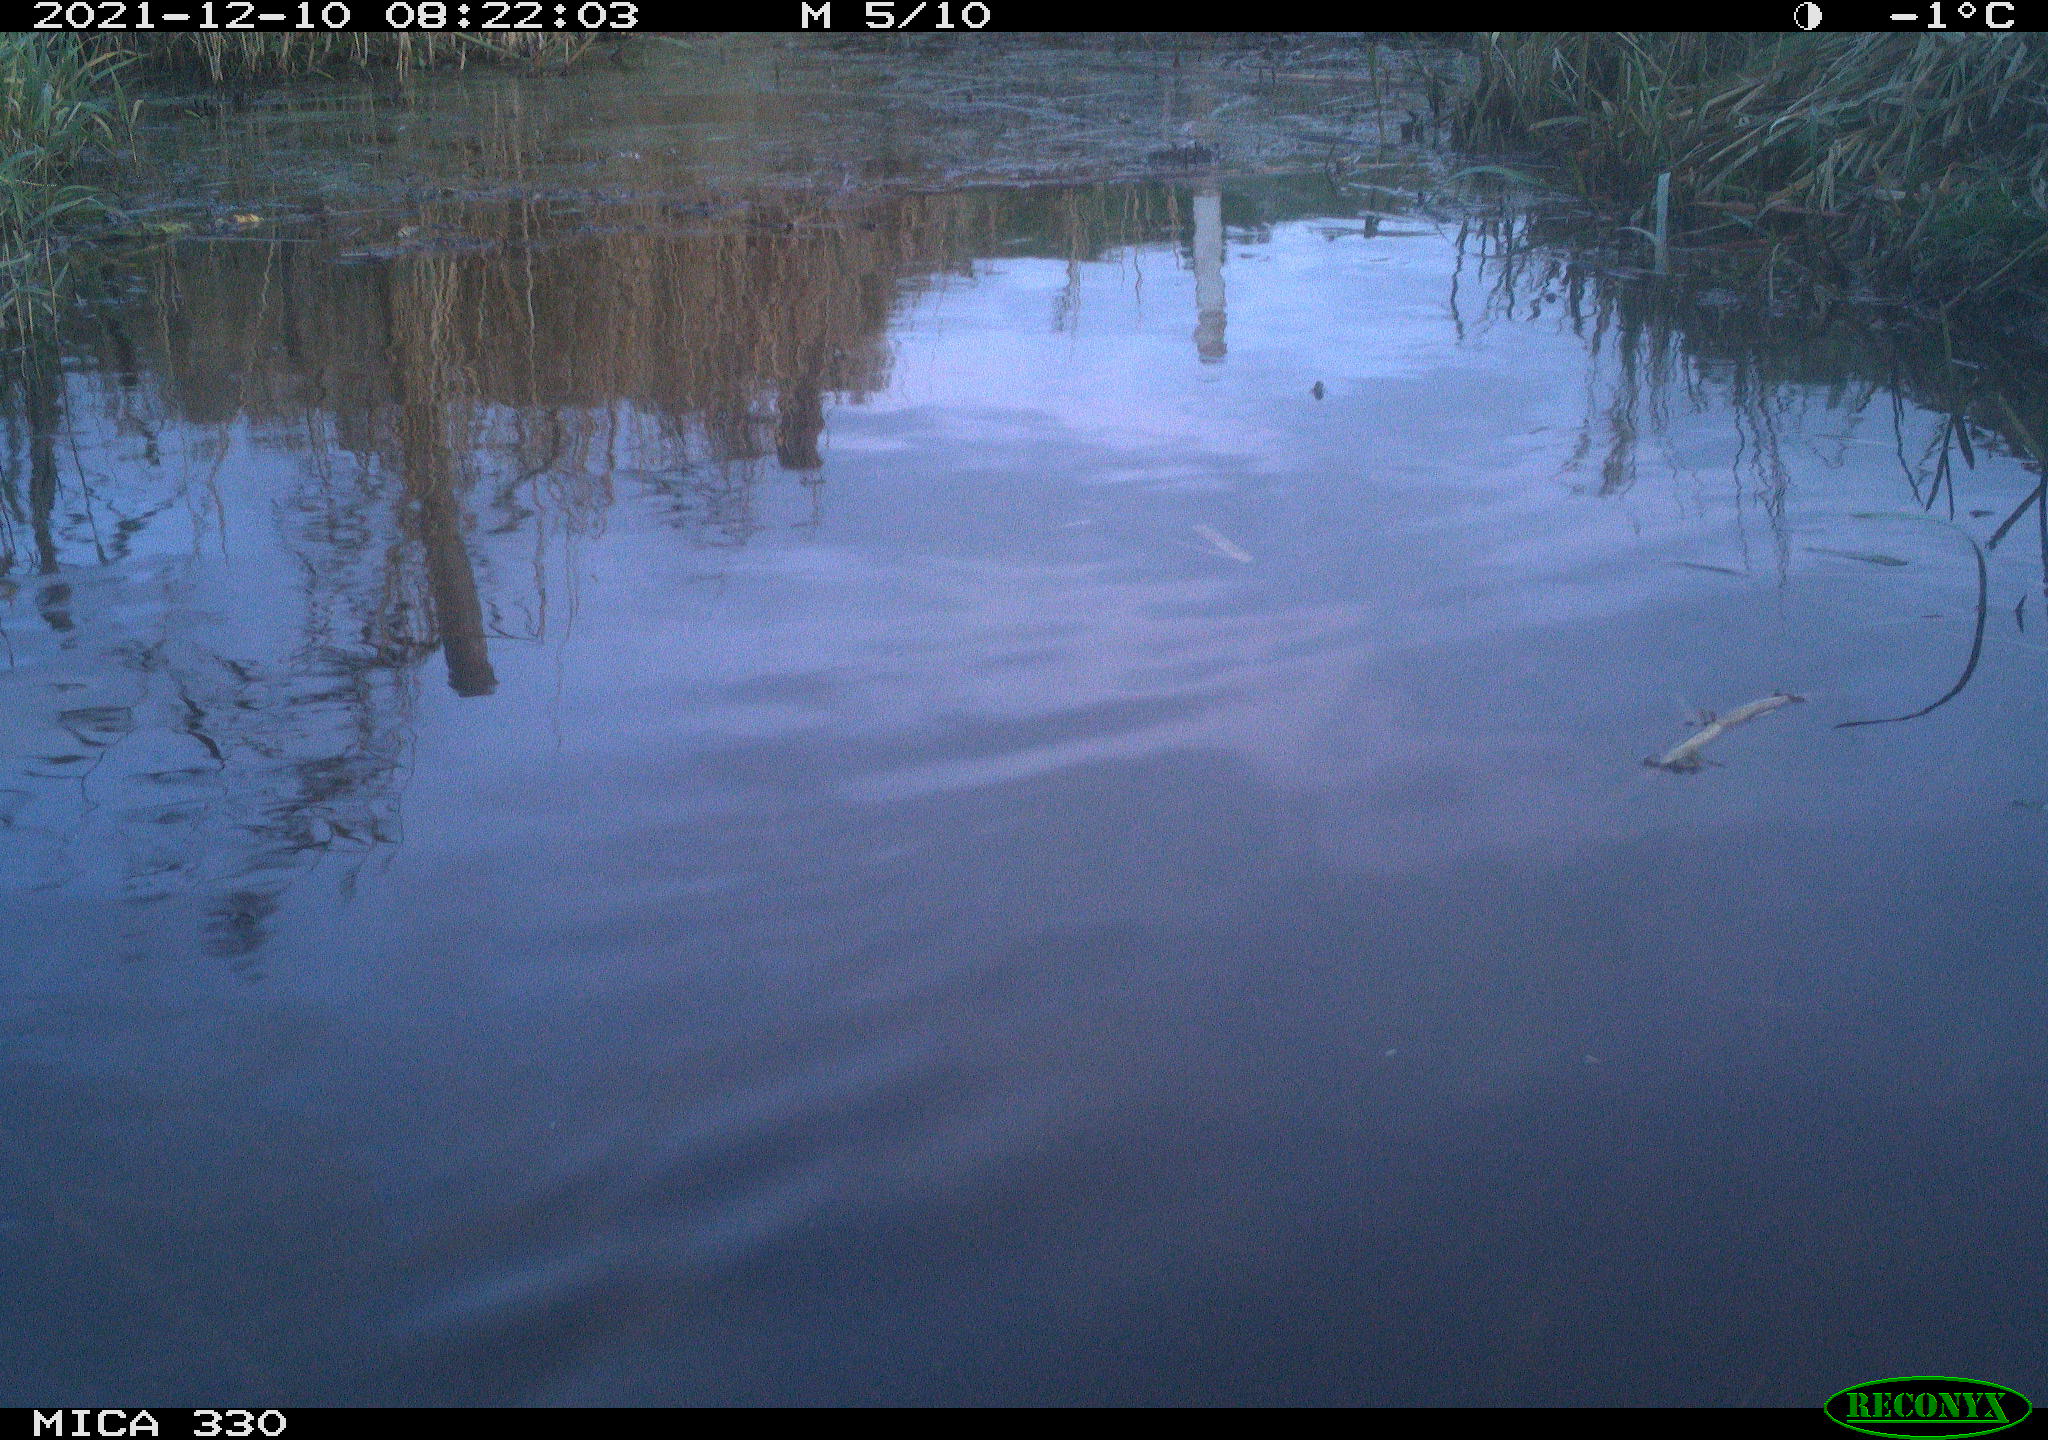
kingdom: Animalia
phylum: Chordata
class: Aves
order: Gruiformes
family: Rallidae
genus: Gallinula
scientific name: Gallinula chloropus
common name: Common moorhen
